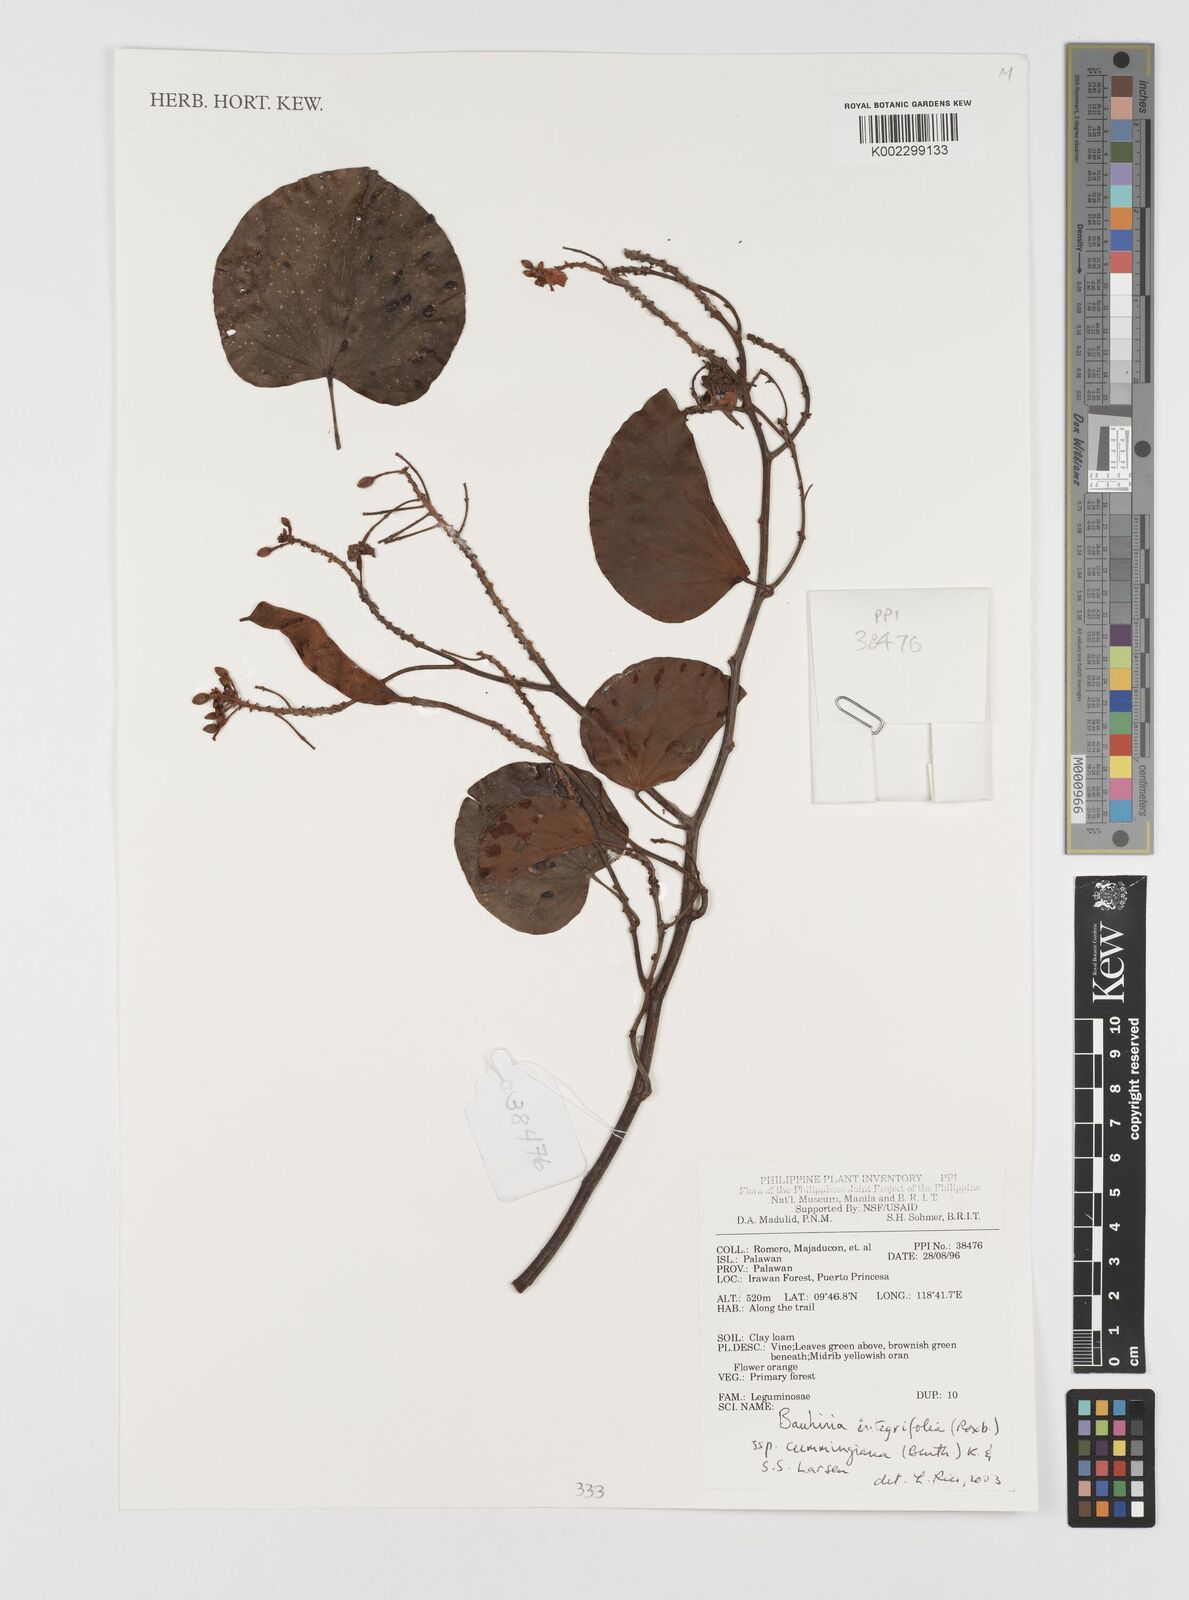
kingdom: Plantae
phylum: Tracheophyta
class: Magnoliopsida
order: Fabales
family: Fabaceae
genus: Phanera
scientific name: Phanera integrifolia
